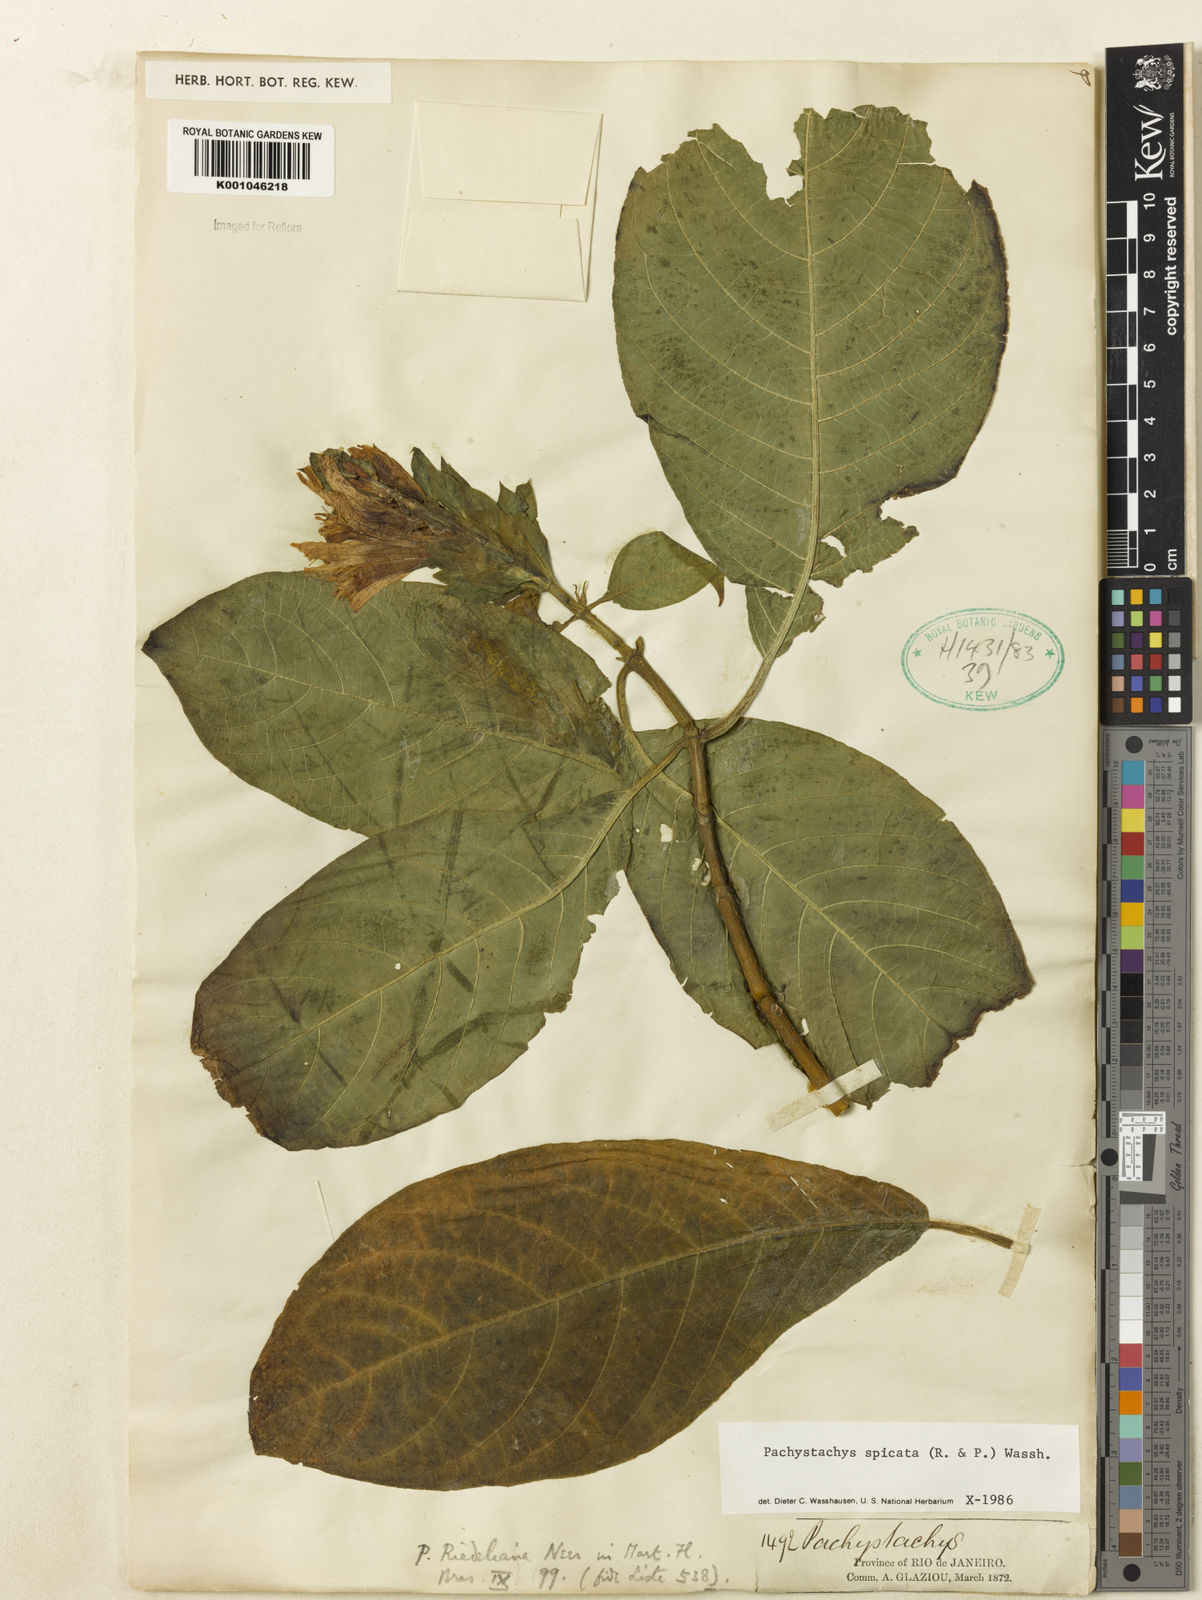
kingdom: Plantae
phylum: Tracheophyta
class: Magnoliopsida
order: Lamiales
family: Acanthaceae
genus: Pachystachys
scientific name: Pachystachys spicata
